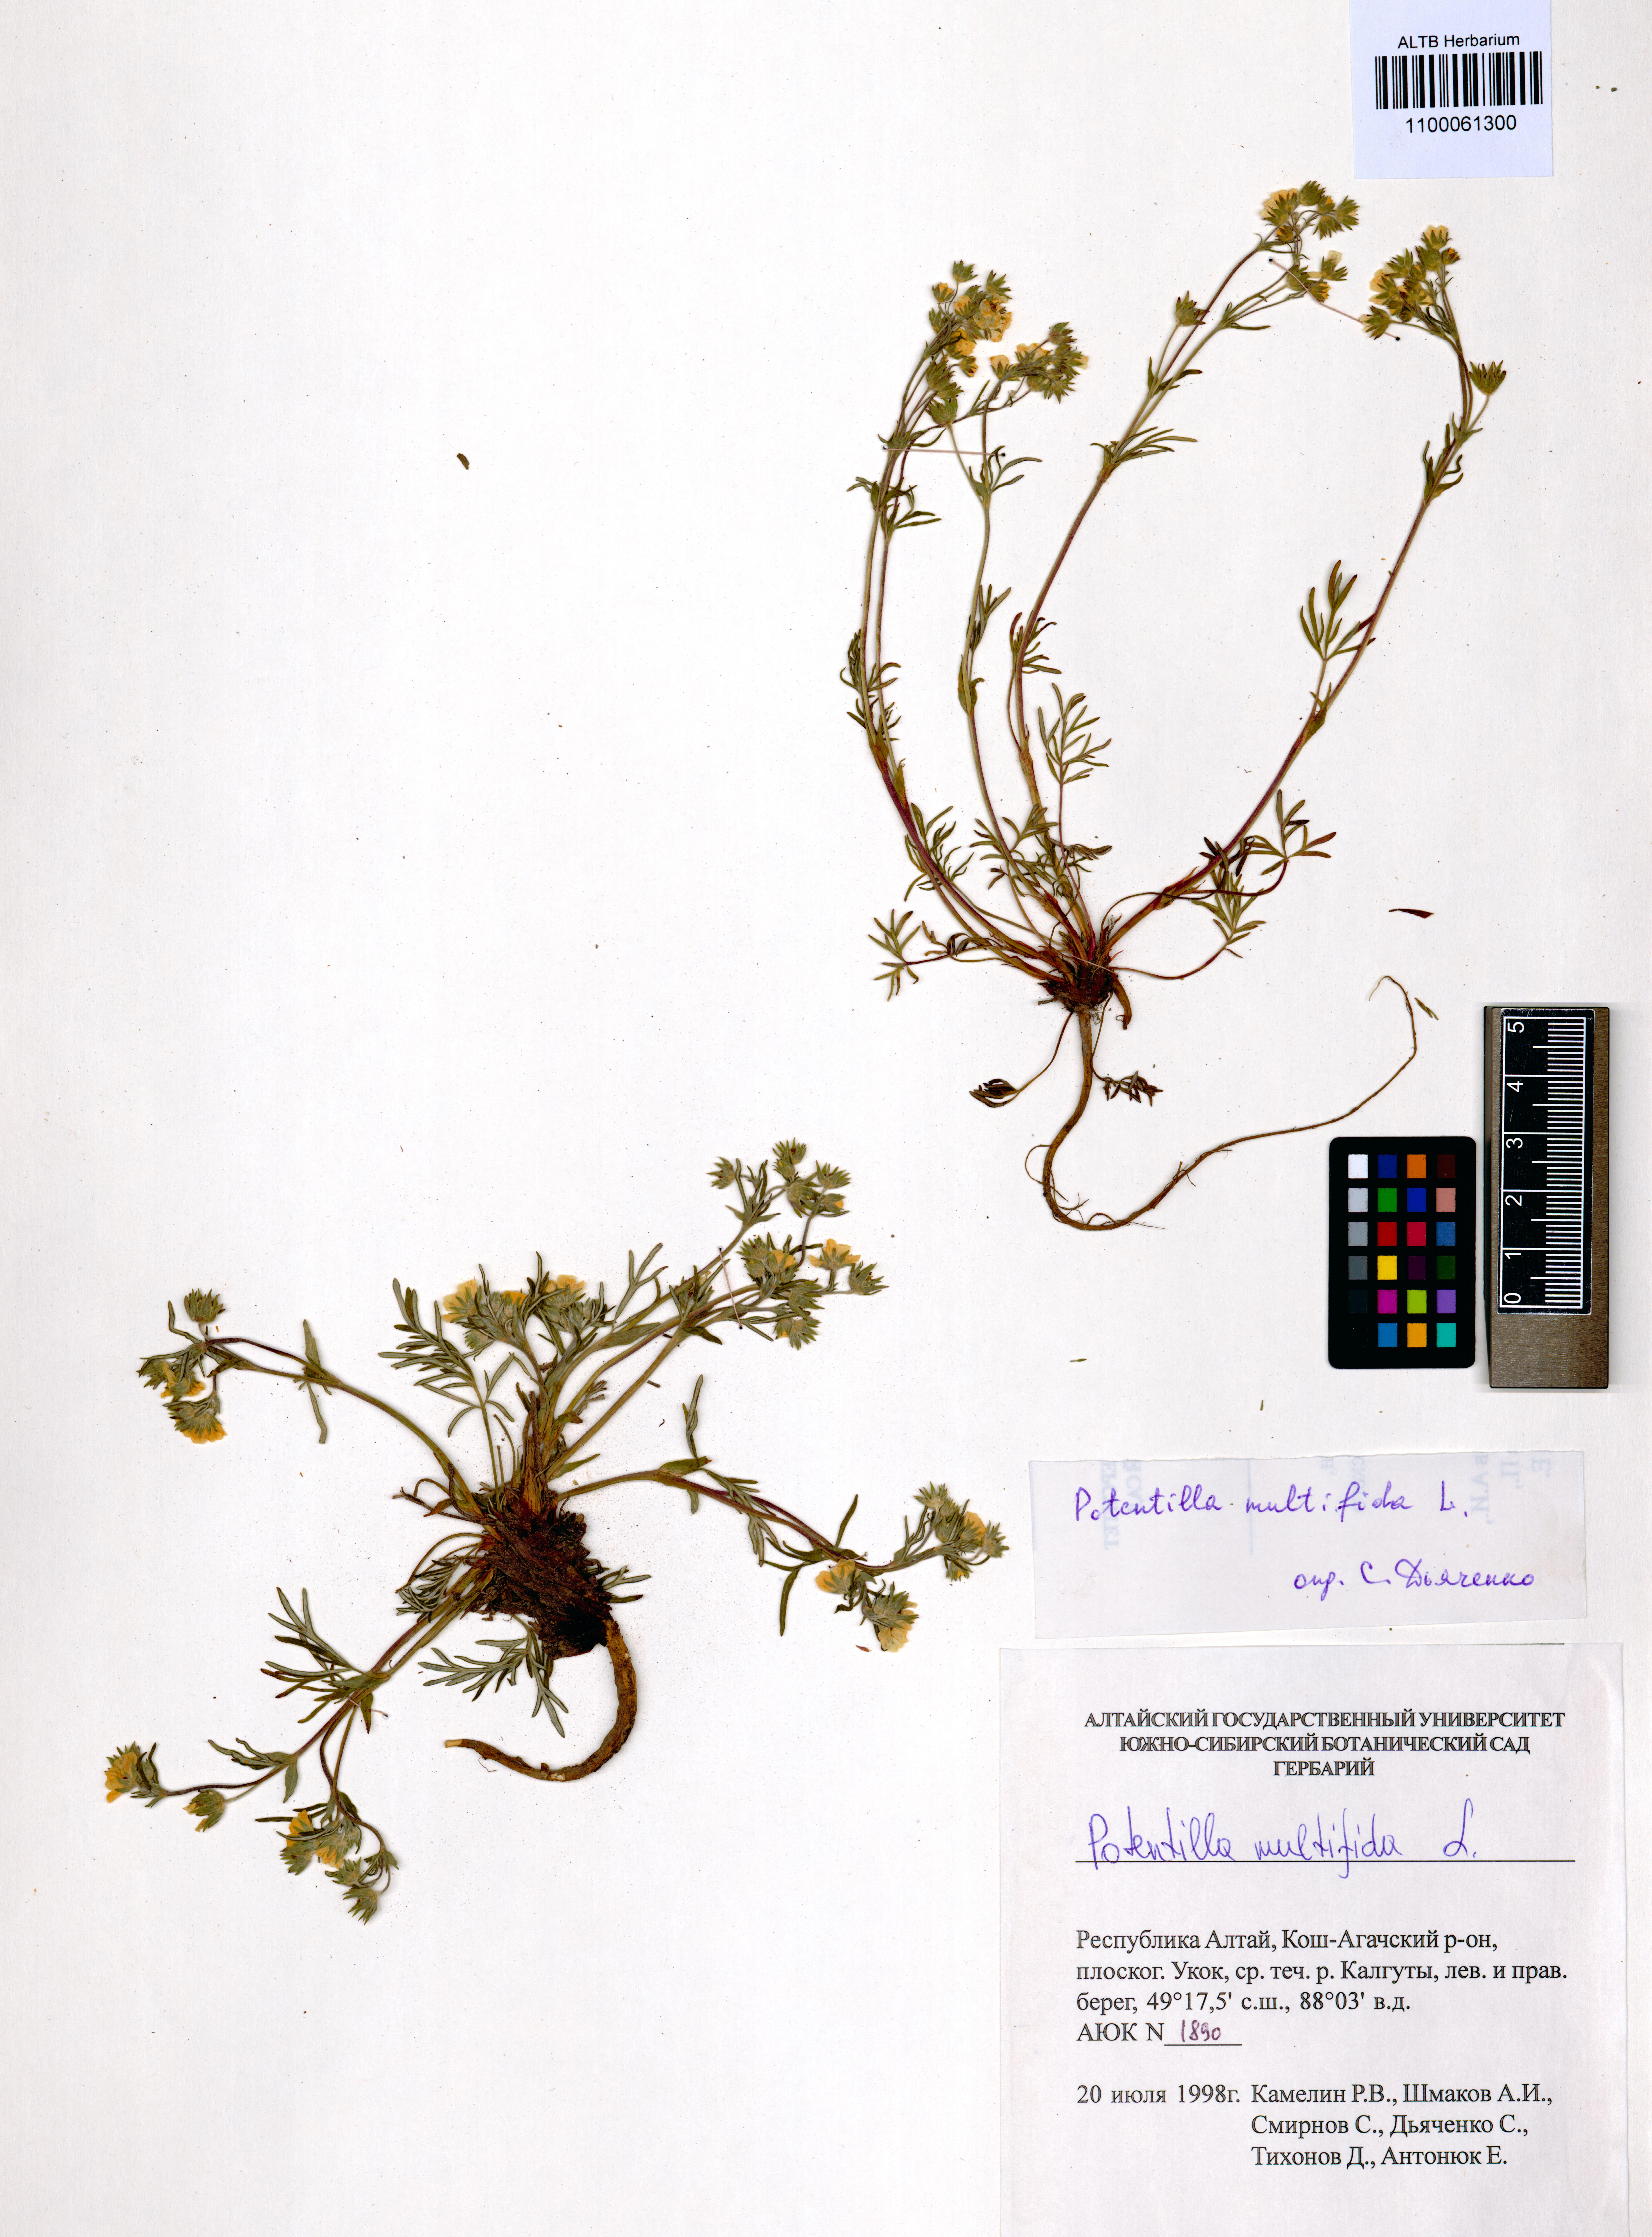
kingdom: Plantae
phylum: Tracheophyta
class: Magnoliopsida
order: Rosales
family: Rosaceae
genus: Potentilla
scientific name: Potentilla multifida
